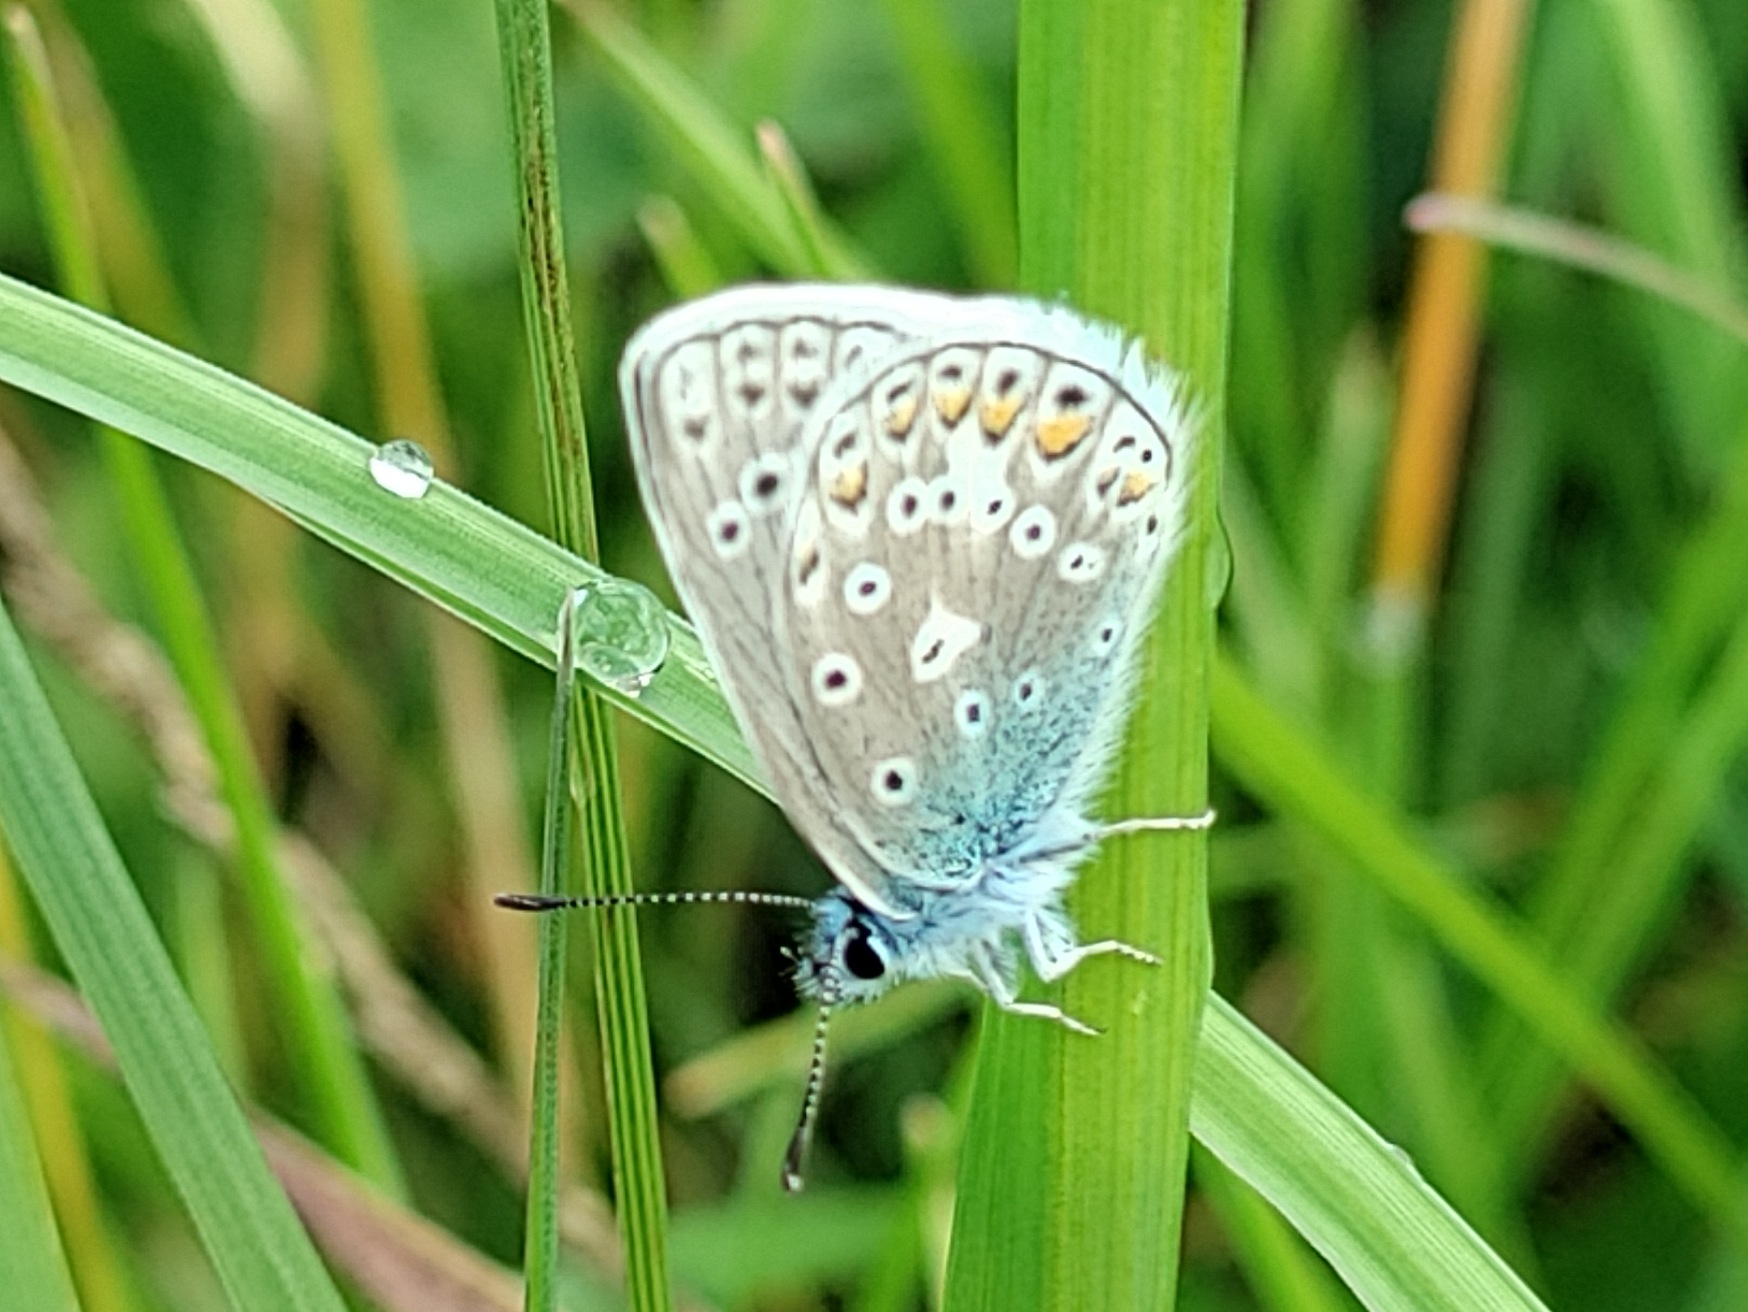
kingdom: Animalia
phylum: Arthropoda
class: Insecta
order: Lepidoptera
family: Lycaenidae
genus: Polyommatus
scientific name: Polyommatus icarus
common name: Almindelig blåfugl
